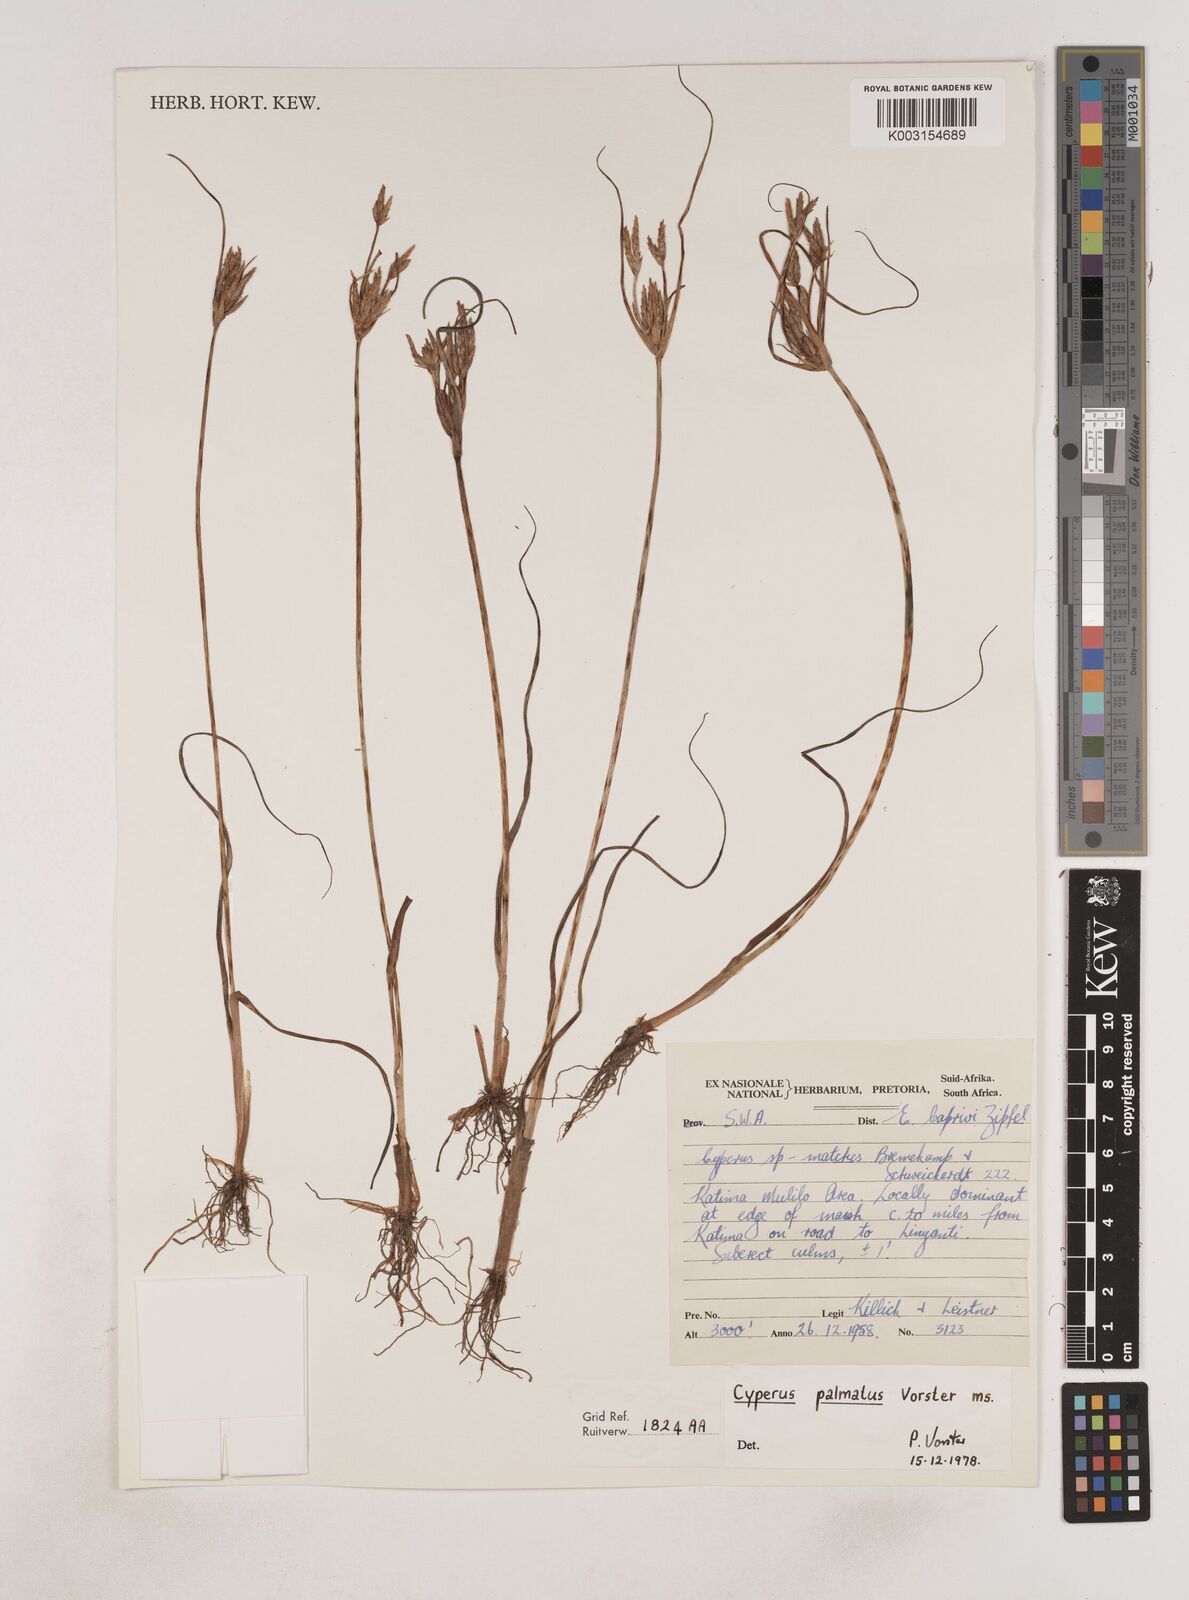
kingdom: Plantae
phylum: Tracheophyta
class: Liliopsida
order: Poales
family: Cyperaceae
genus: Cyperus
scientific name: Cyperus
